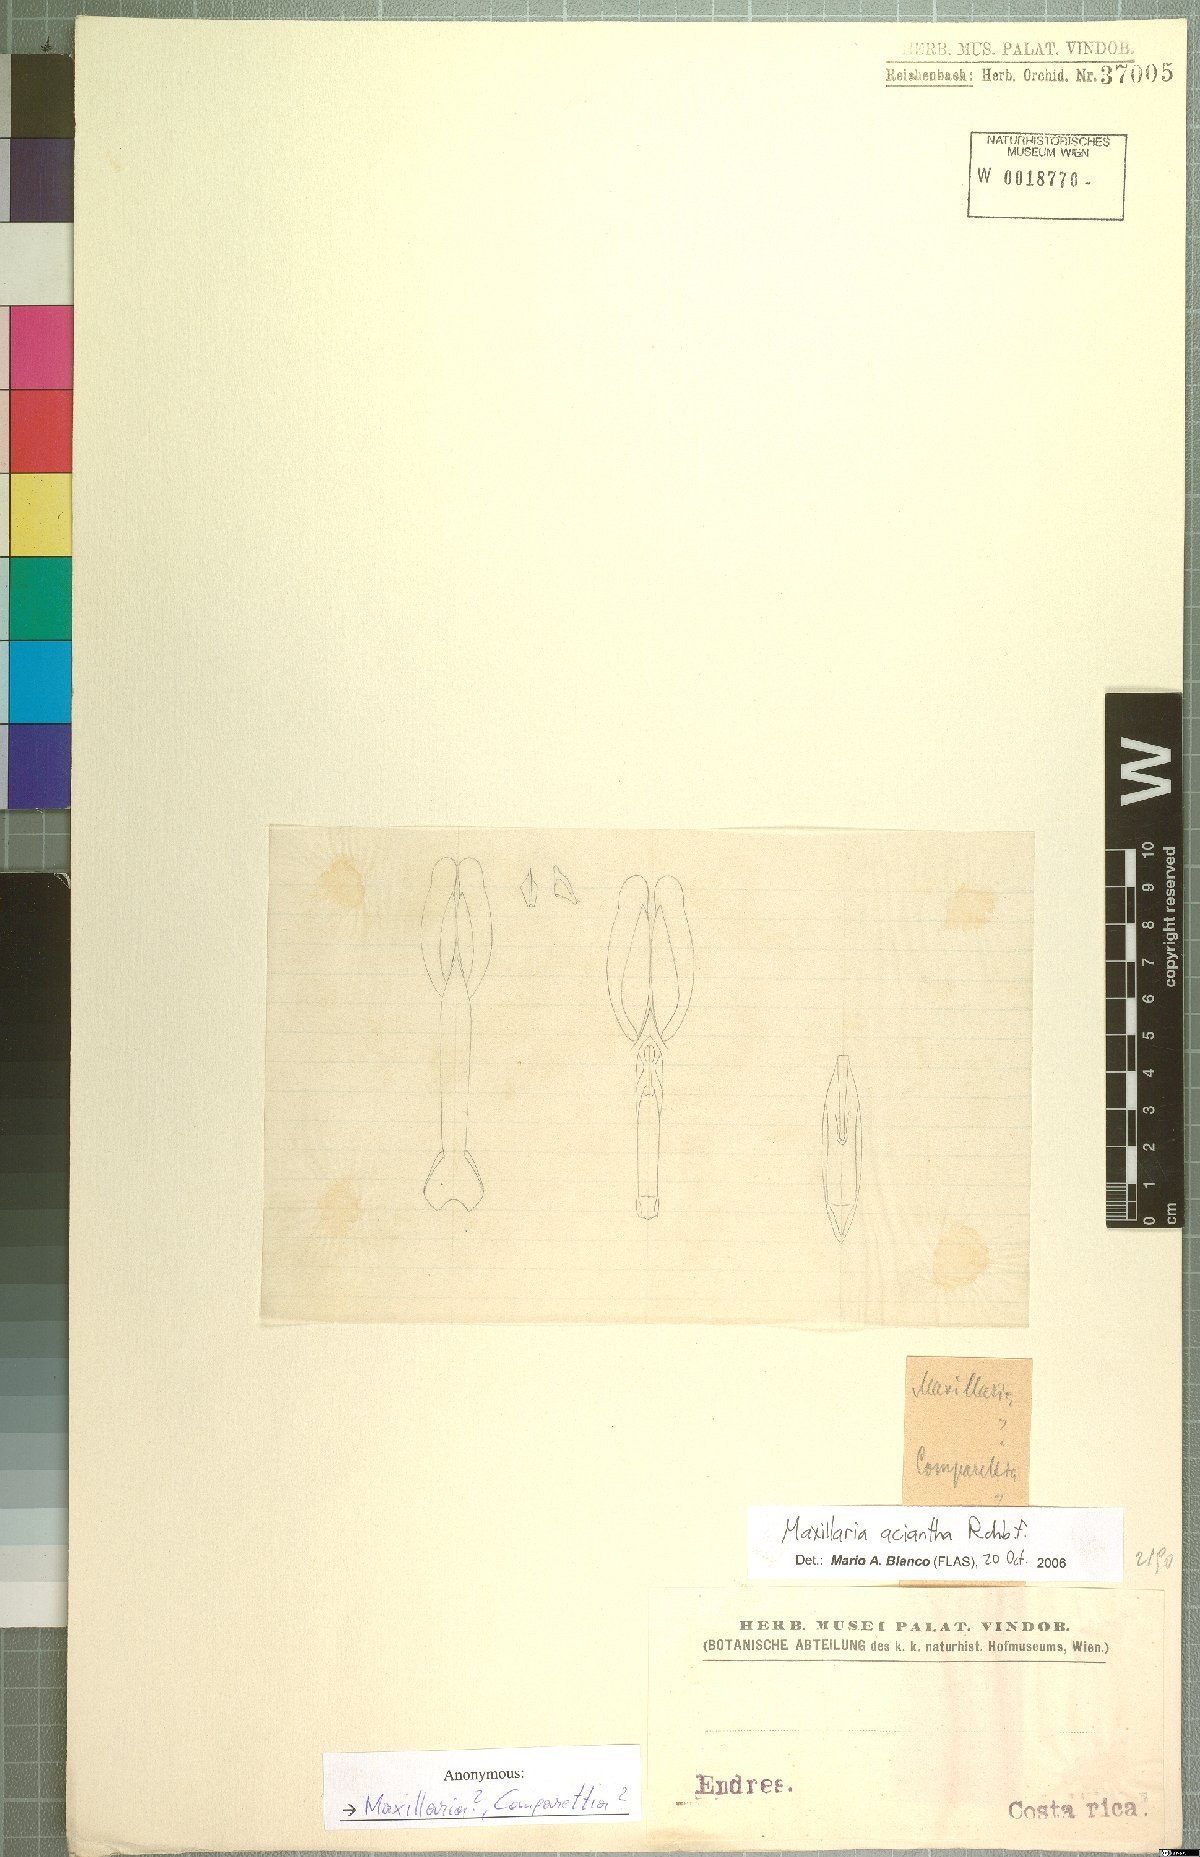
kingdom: Plantae
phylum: Tracheophyta
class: Liliopsida
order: Asparagales
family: Orchidaceae
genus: Maxillaria
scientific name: Maxillaria aciantha
